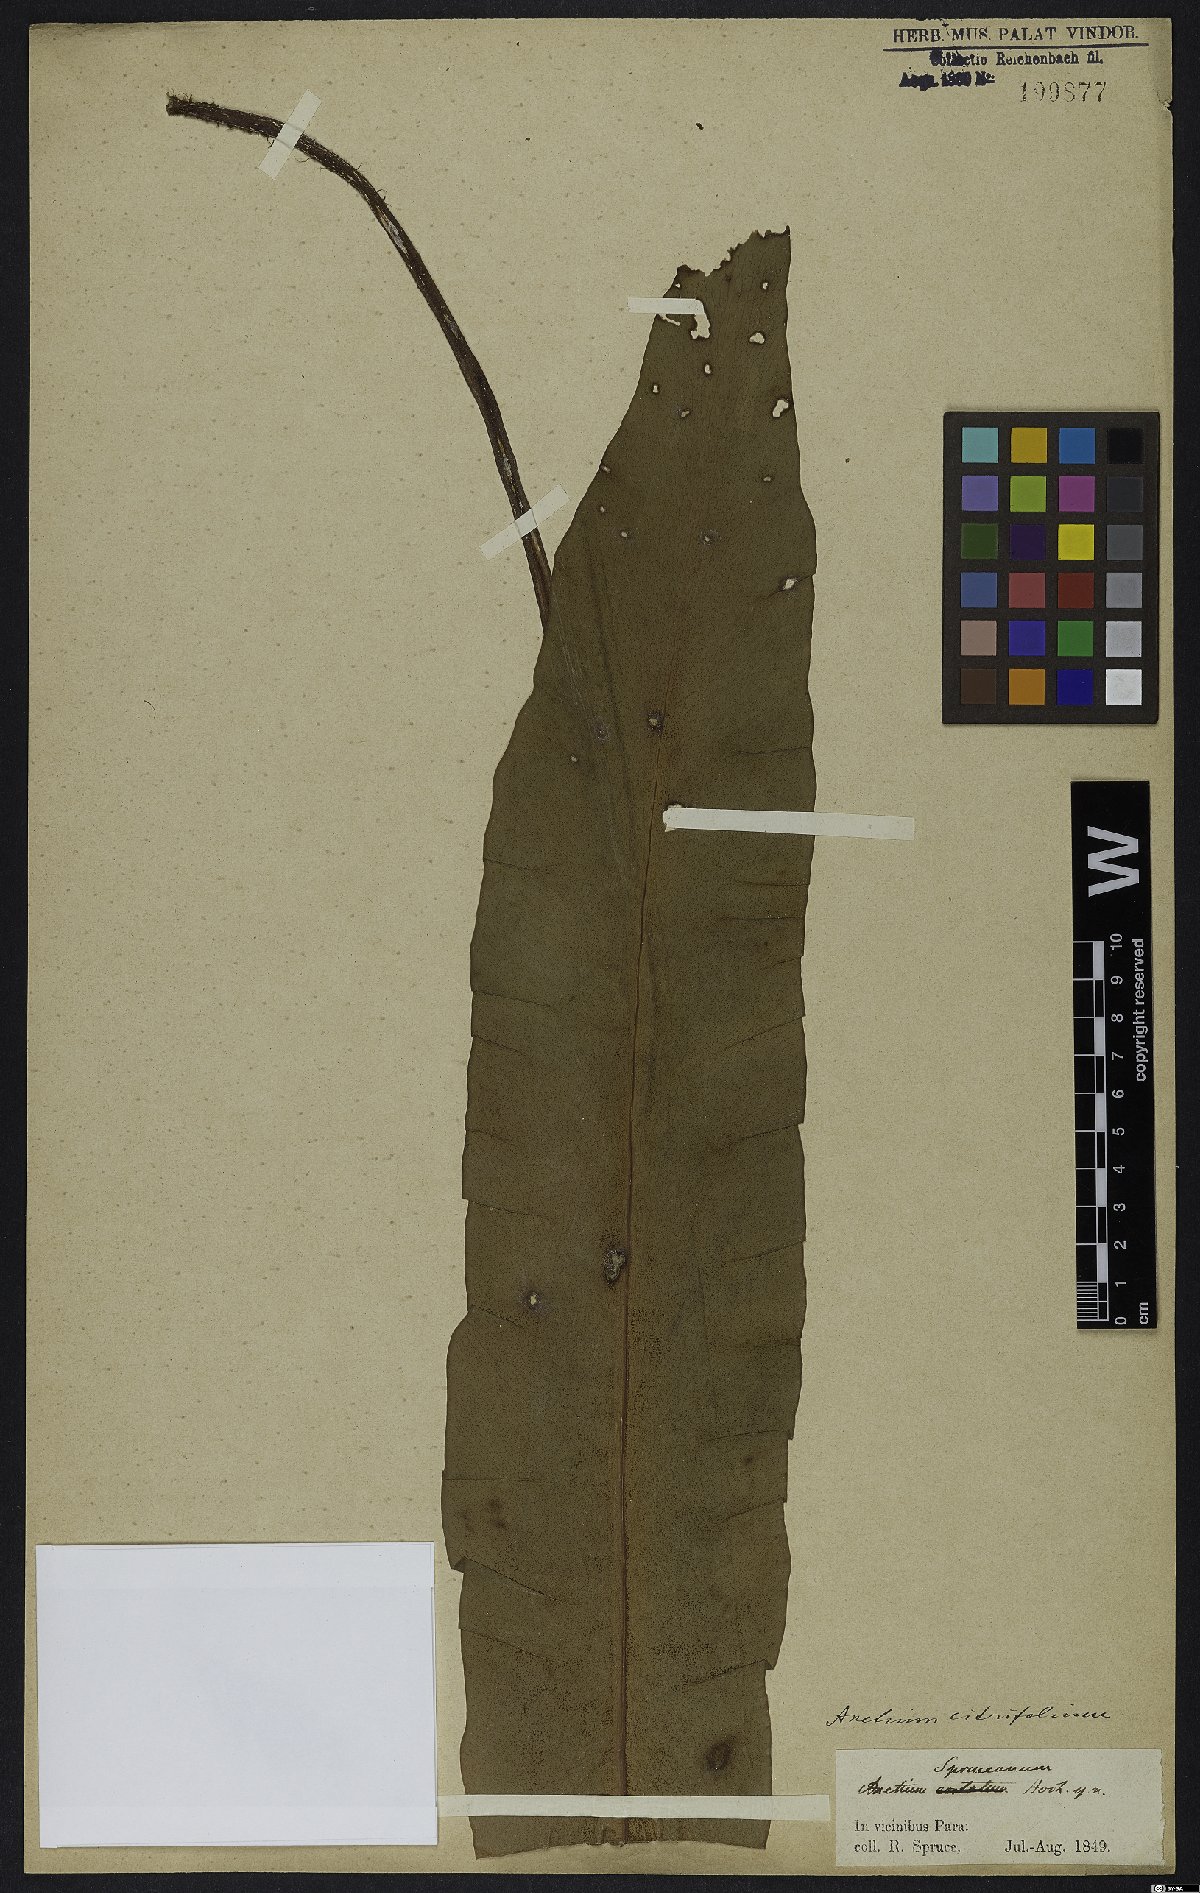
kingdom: Plantae
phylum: Tracheophyta
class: Polypodiopsida
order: Polypodiales
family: Pteridaceae
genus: Polytaenium
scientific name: Polytaenium citrifolium
